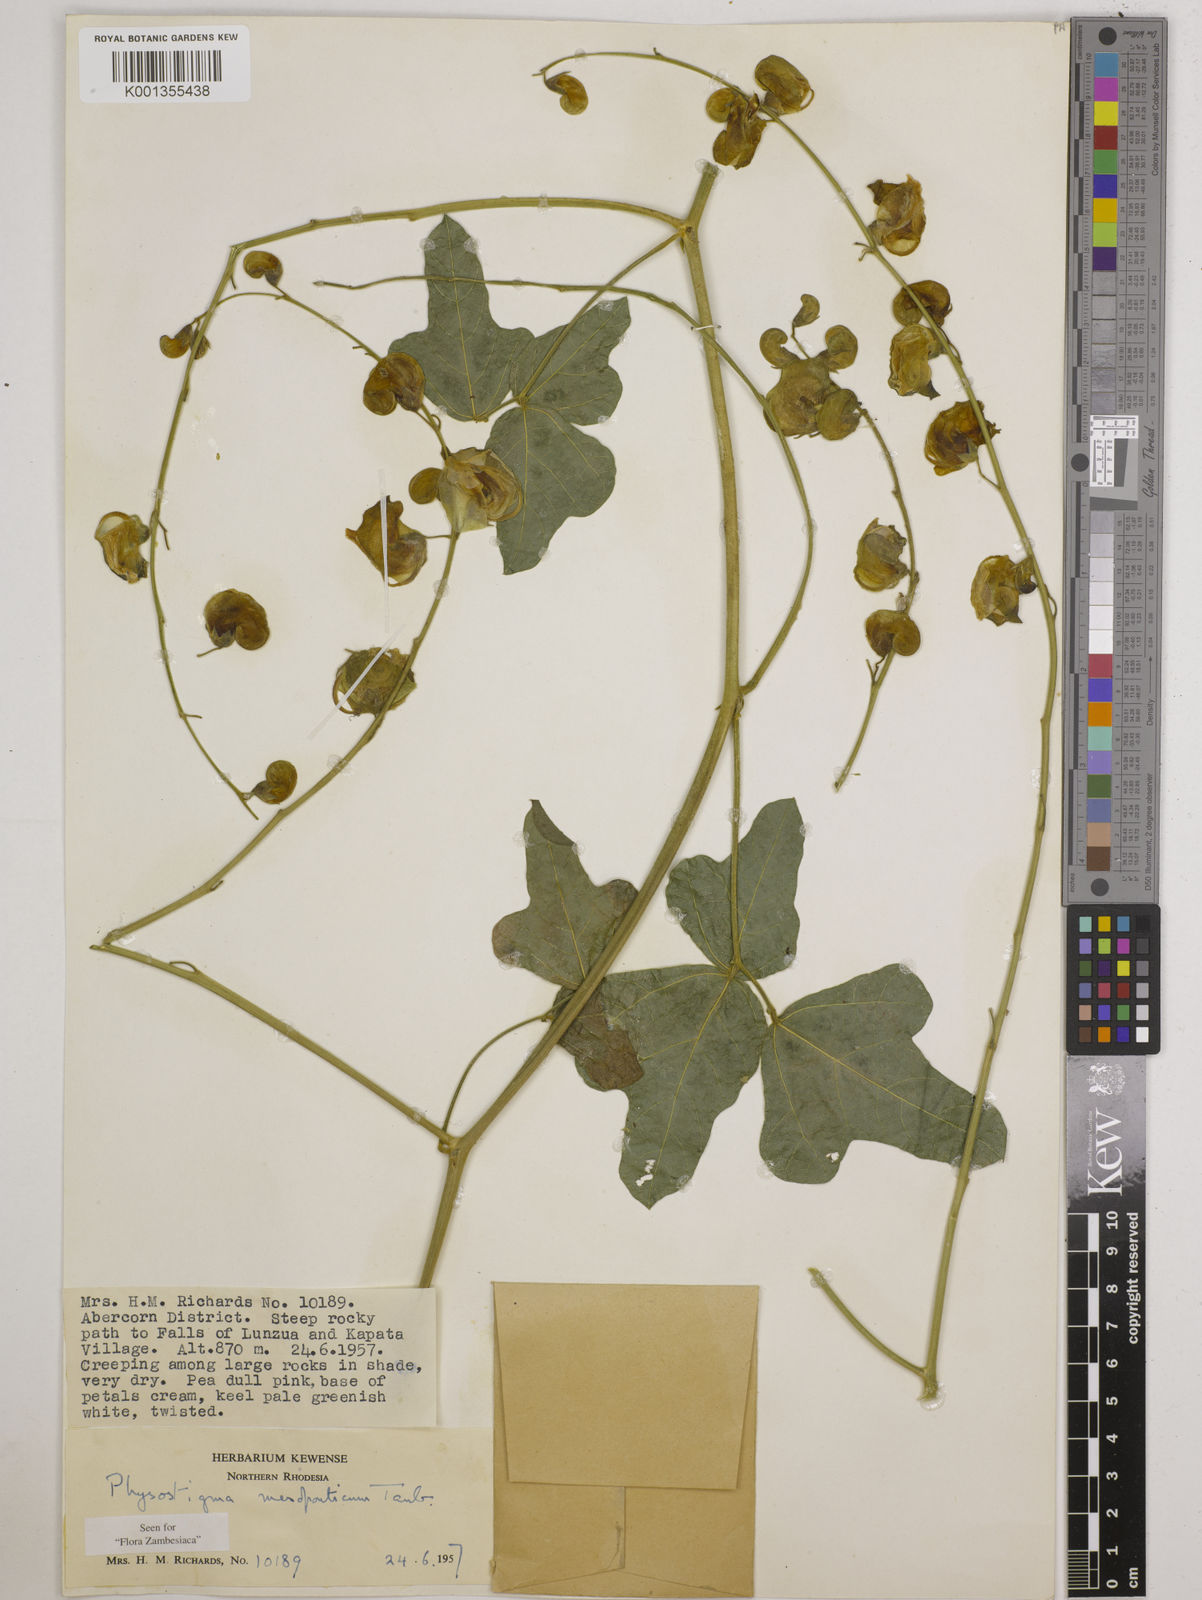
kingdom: Plantae
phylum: Tracheophyta
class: Magnoliopsida
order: Fabales
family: Fabaceae
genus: Physostigma
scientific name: Physostigma mesoponticum
